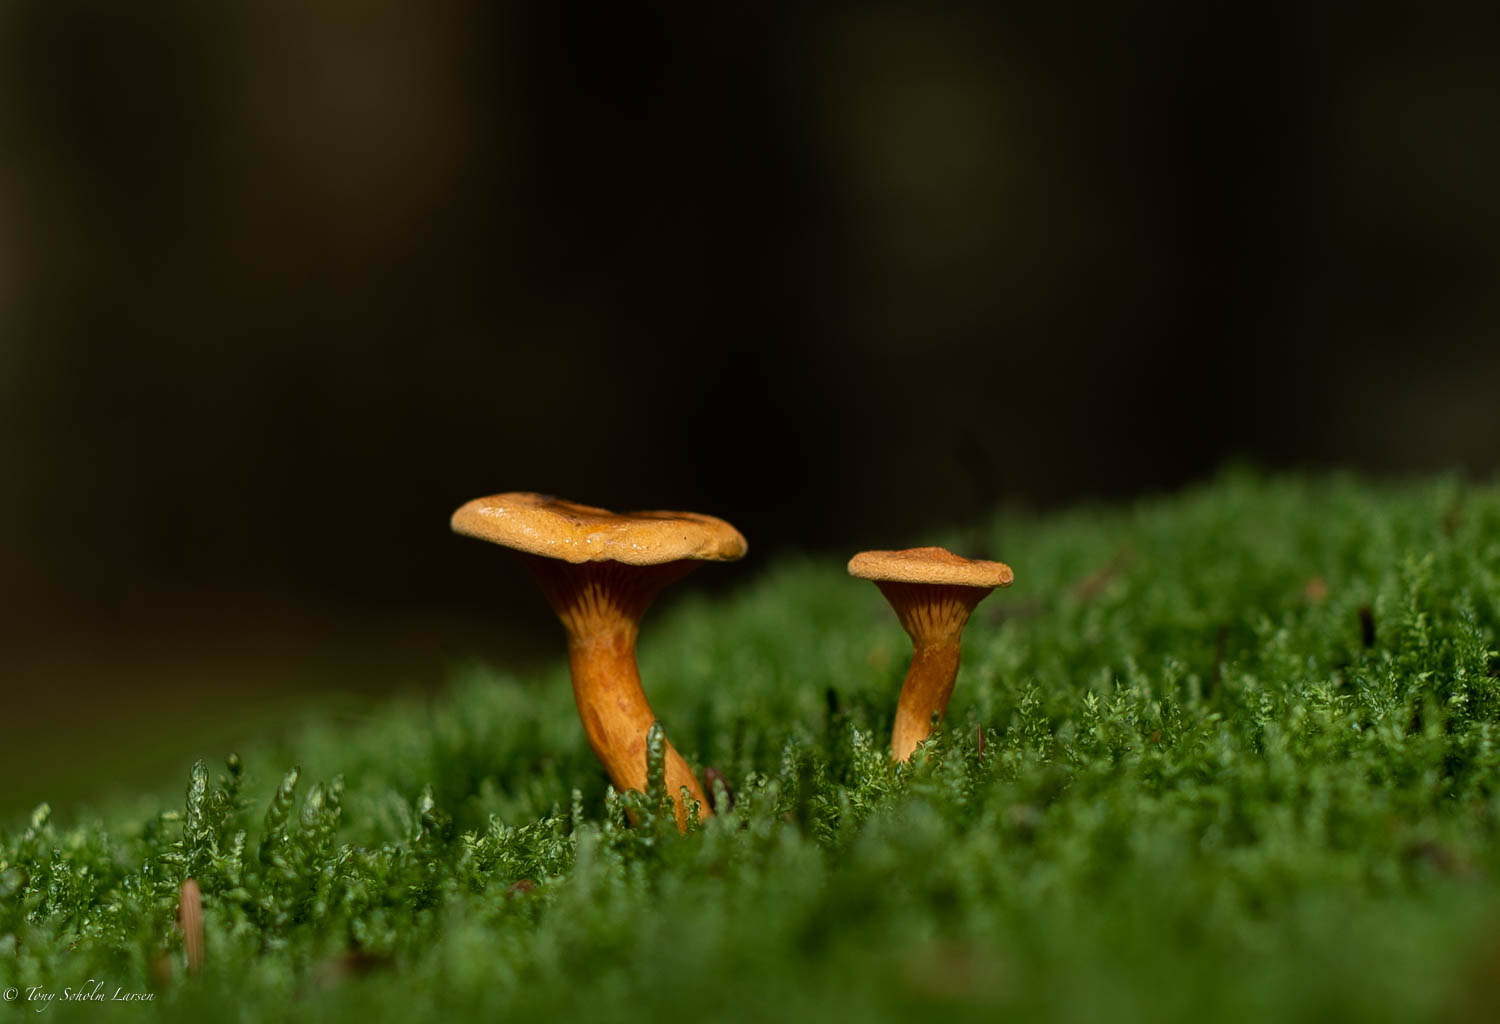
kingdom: Fungi
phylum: Basidiomycota
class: Agaricomycetes
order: Boletales
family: Hygrophoropsidaceae
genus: Hygrophoropsis
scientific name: Hygrophoropsis aurantiaca
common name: almindelig orangekantarel
